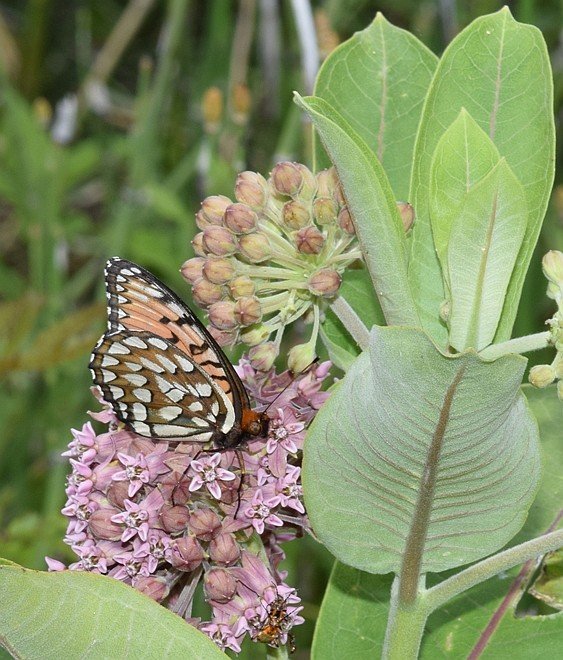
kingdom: Animalia
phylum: Arthropoda
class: Insecta
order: Lepidoptera
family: Nymphalidae
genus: Speyeria
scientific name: Speyeria idalia
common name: Regal Fritillary
